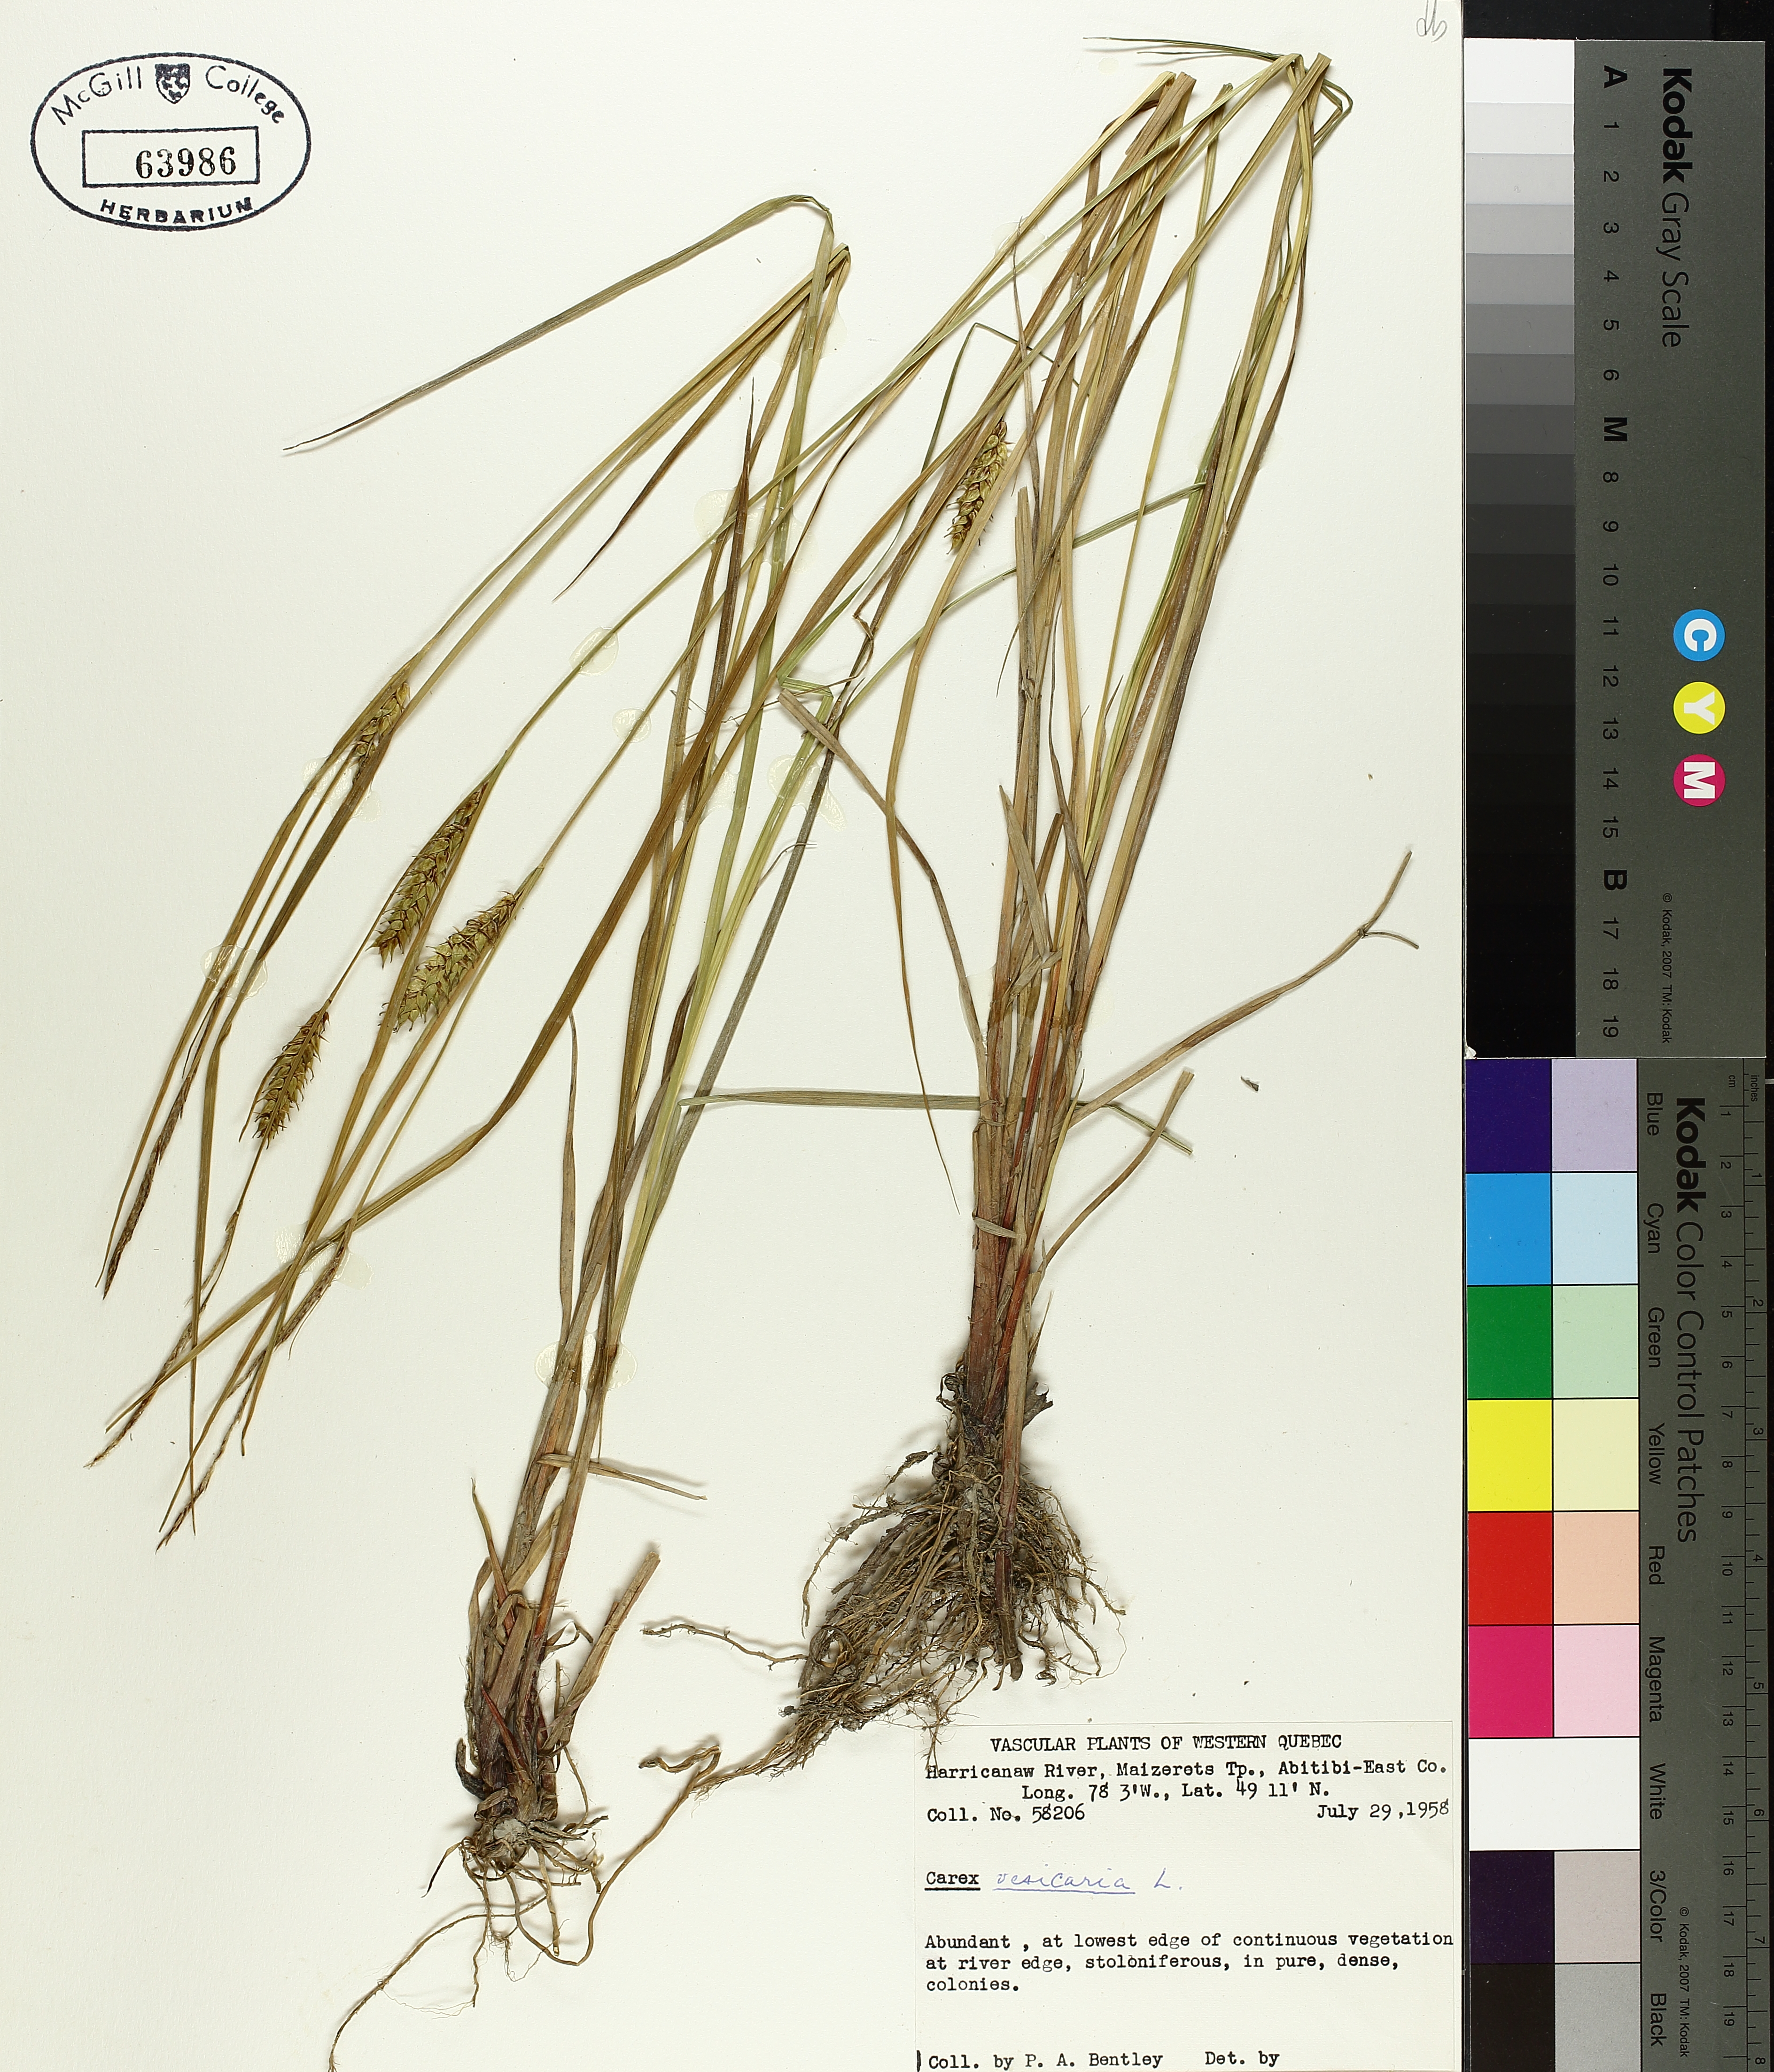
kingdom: Plantae
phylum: Tracheophyta
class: Liliopsida
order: Poales
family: Cyperaceae
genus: Carex
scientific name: Carex vesicaria
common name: Bladder-sedge
